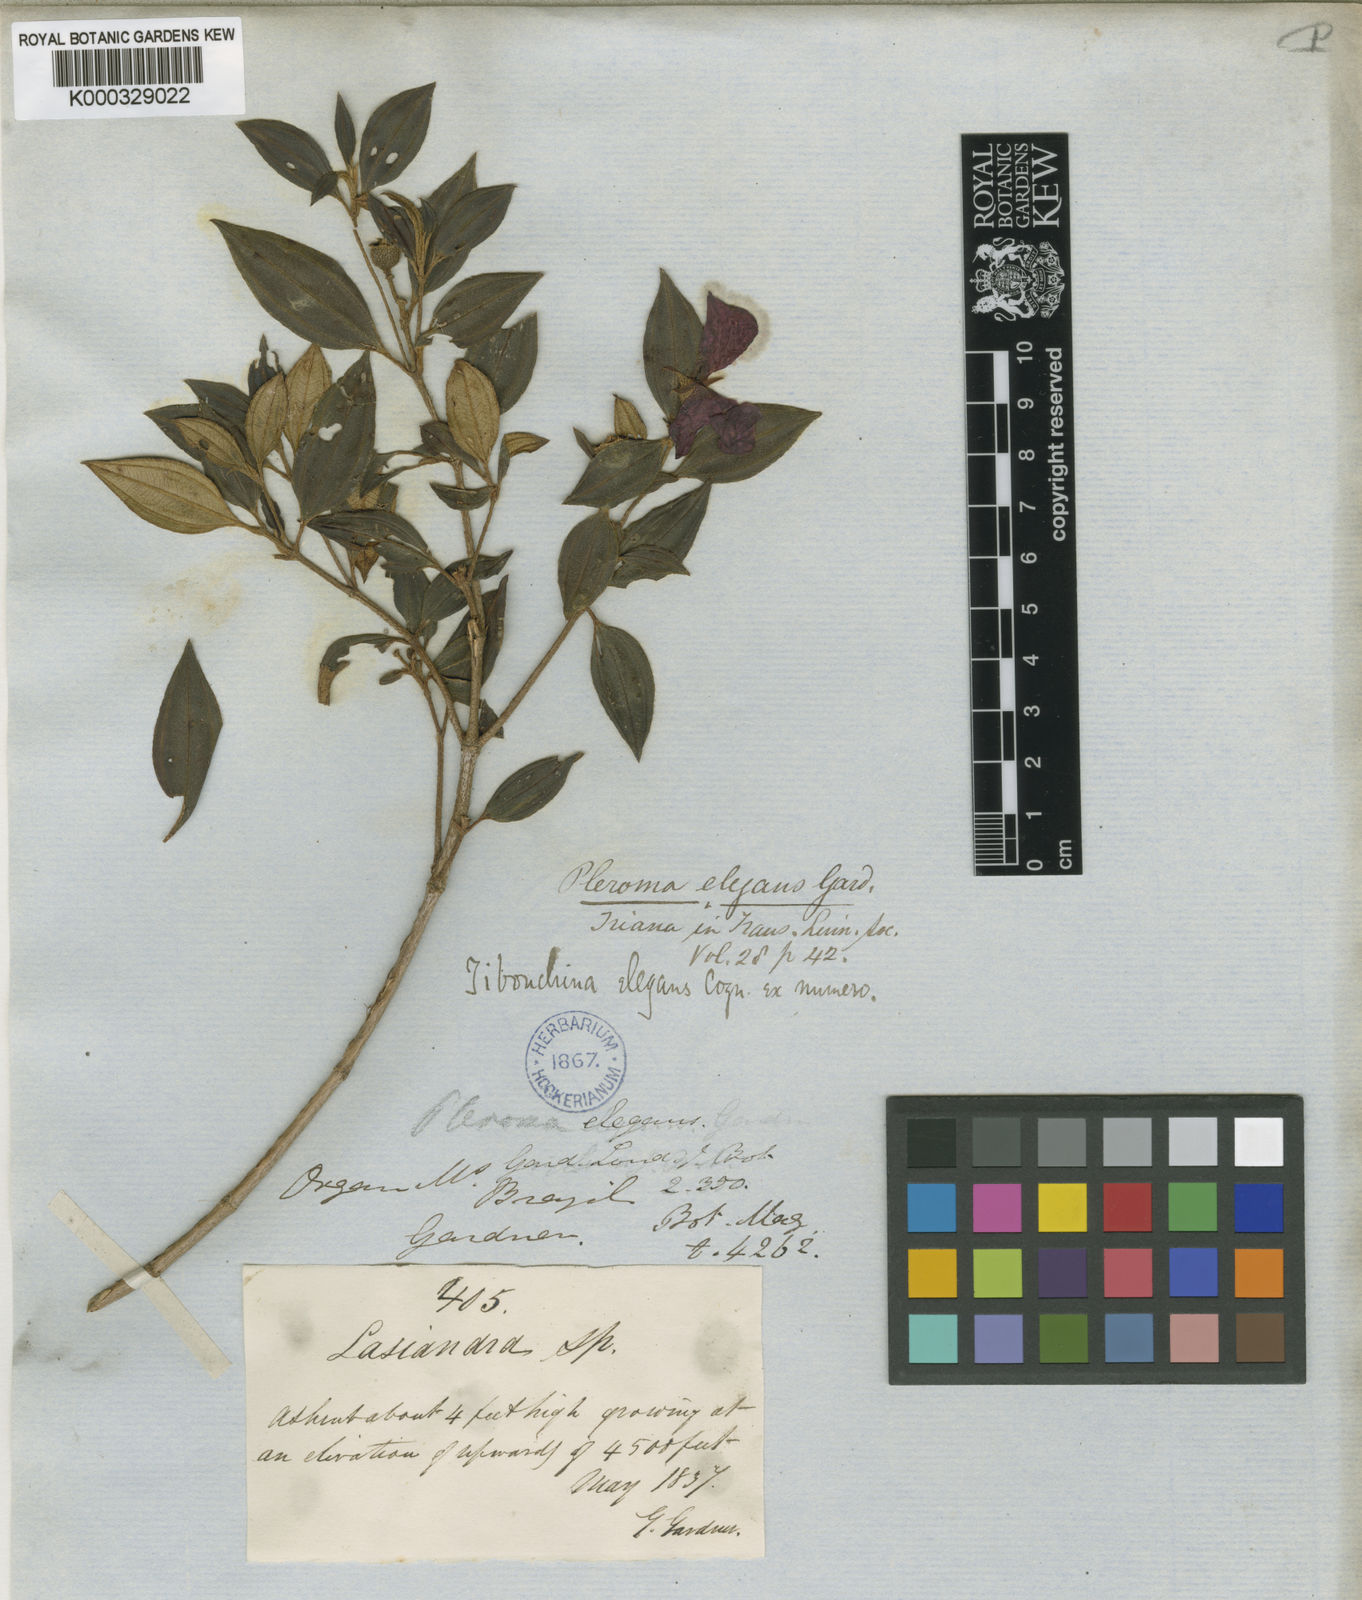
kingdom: Plantae
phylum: Tracheophyta
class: Magnoliopsida
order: Myrtales
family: Melastomataceae
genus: Pleroma
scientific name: Pleroma elegans
